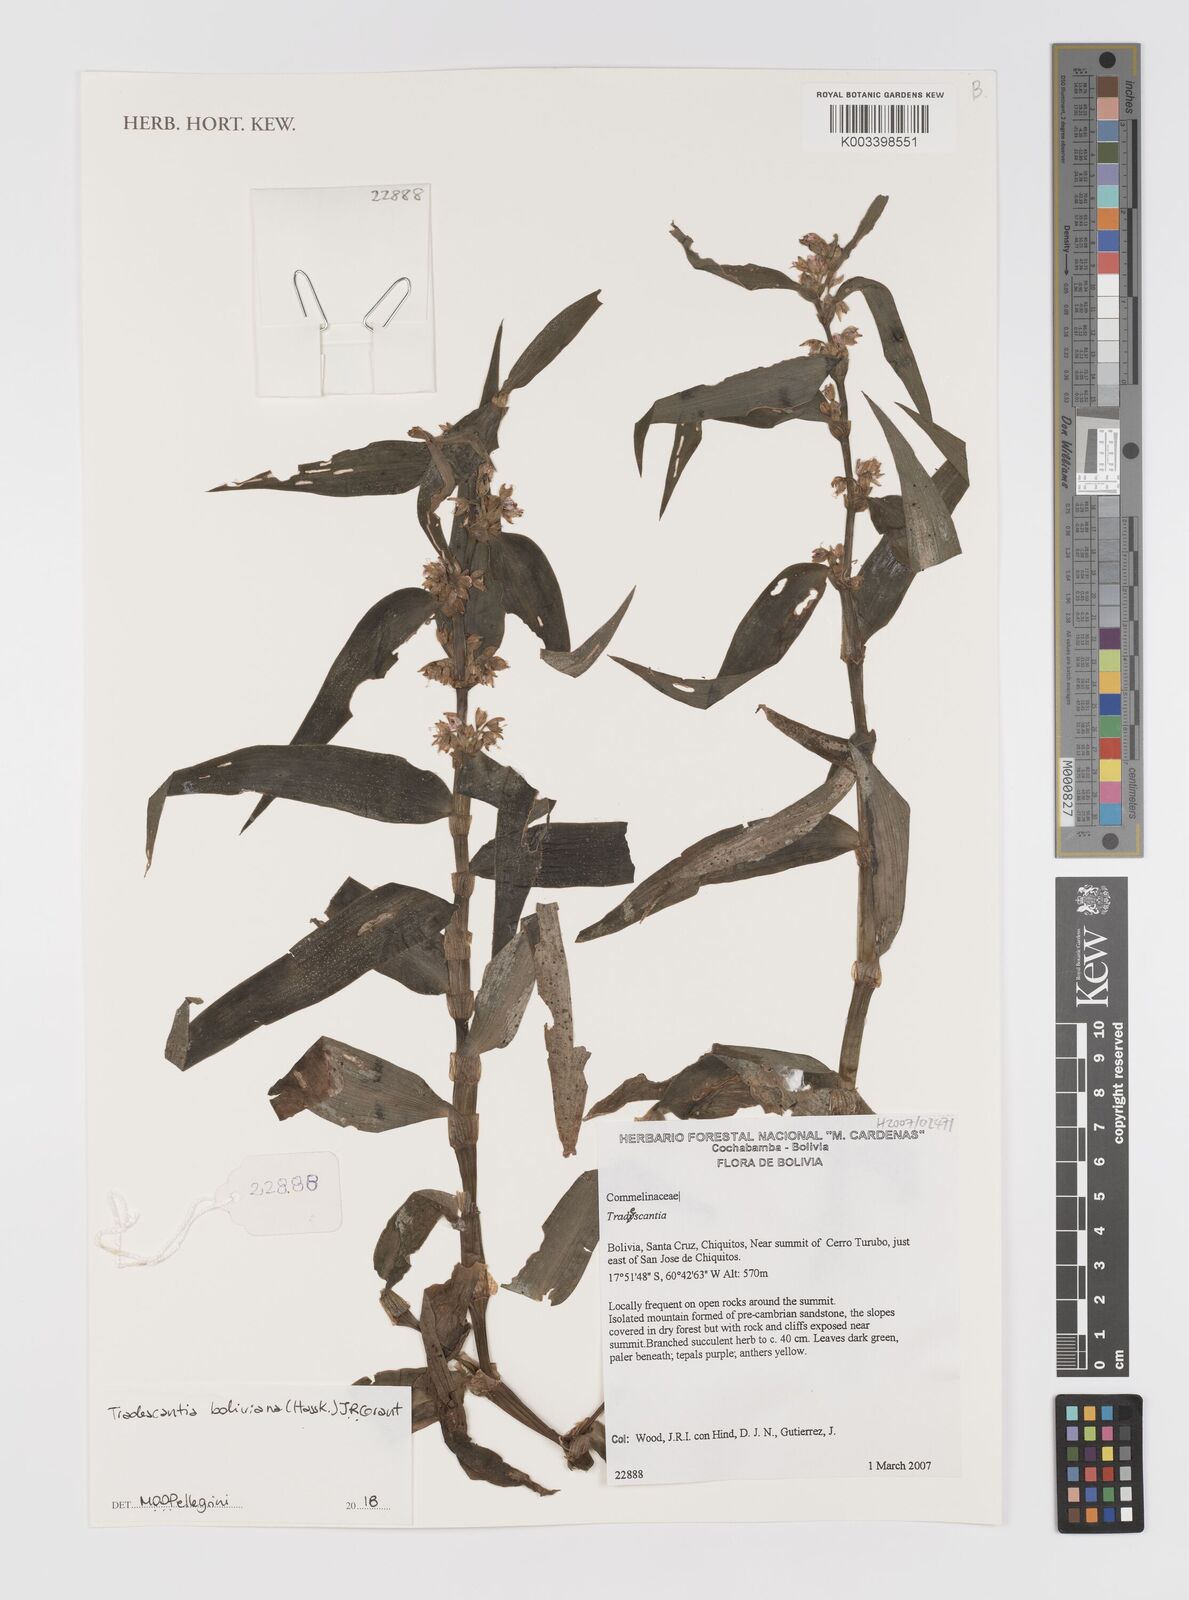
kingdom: Plantae
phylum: Tracheophyta
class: Liliopsida
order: Commelinales
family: Commelinaceae
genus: Tradescantia
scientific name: Tradescantia boliviana
